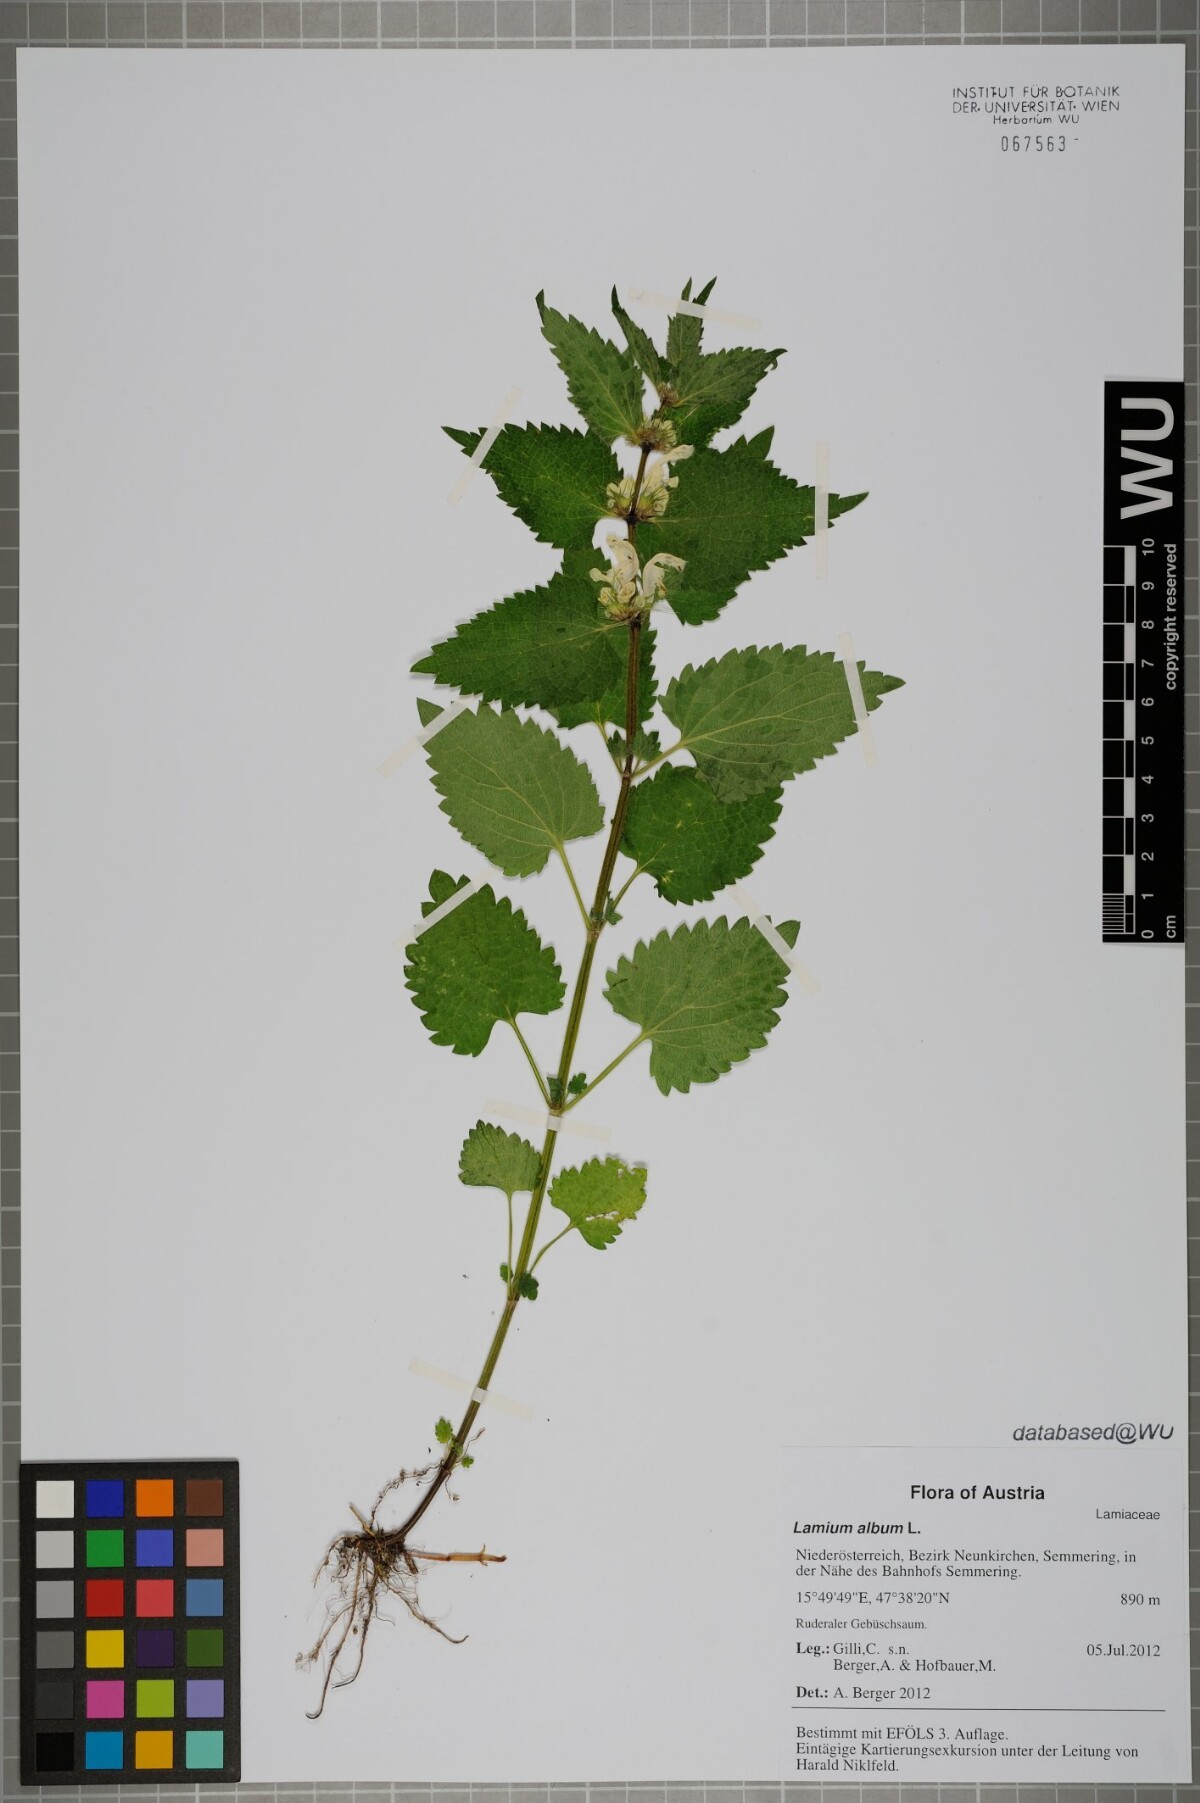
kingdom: Plantae
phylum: Tracheophyta
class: Magnoliopsida
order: Lamiales
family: Lamiaceae
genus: Lamium
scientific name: Lamium album
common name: White dead-nettle
